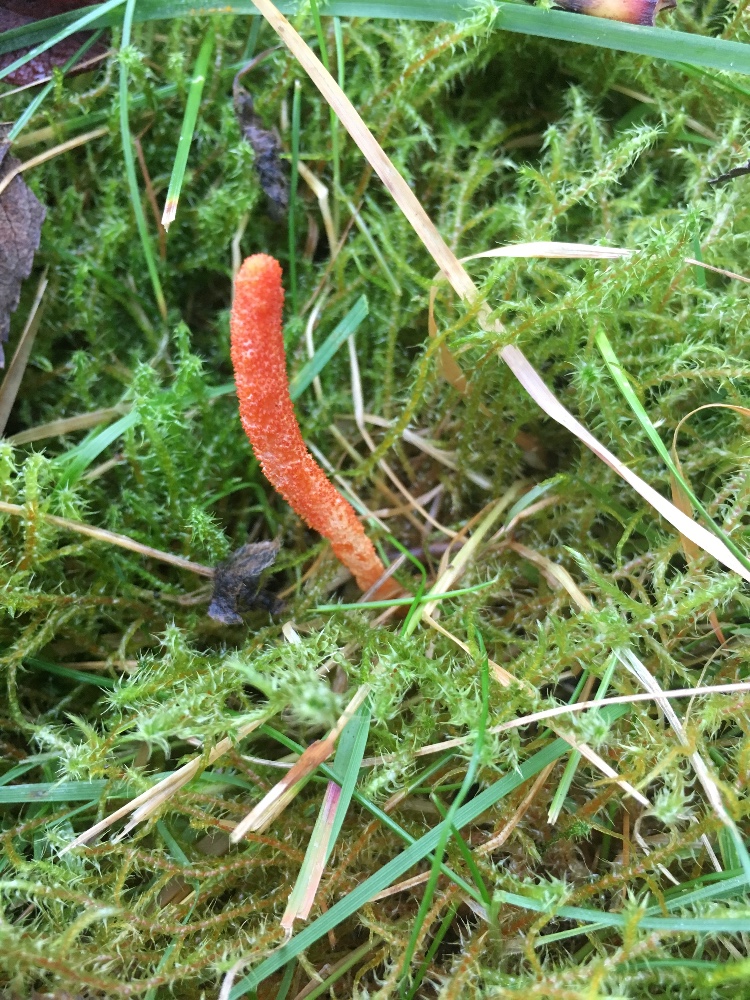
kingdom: Fungi
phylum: Ascomycota
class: Sordariomycetes
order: Hypocreales
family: Cordycipitaceae
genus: Cordyceps
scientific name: Cordyceps militaris
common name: puppe-snyltekølle
